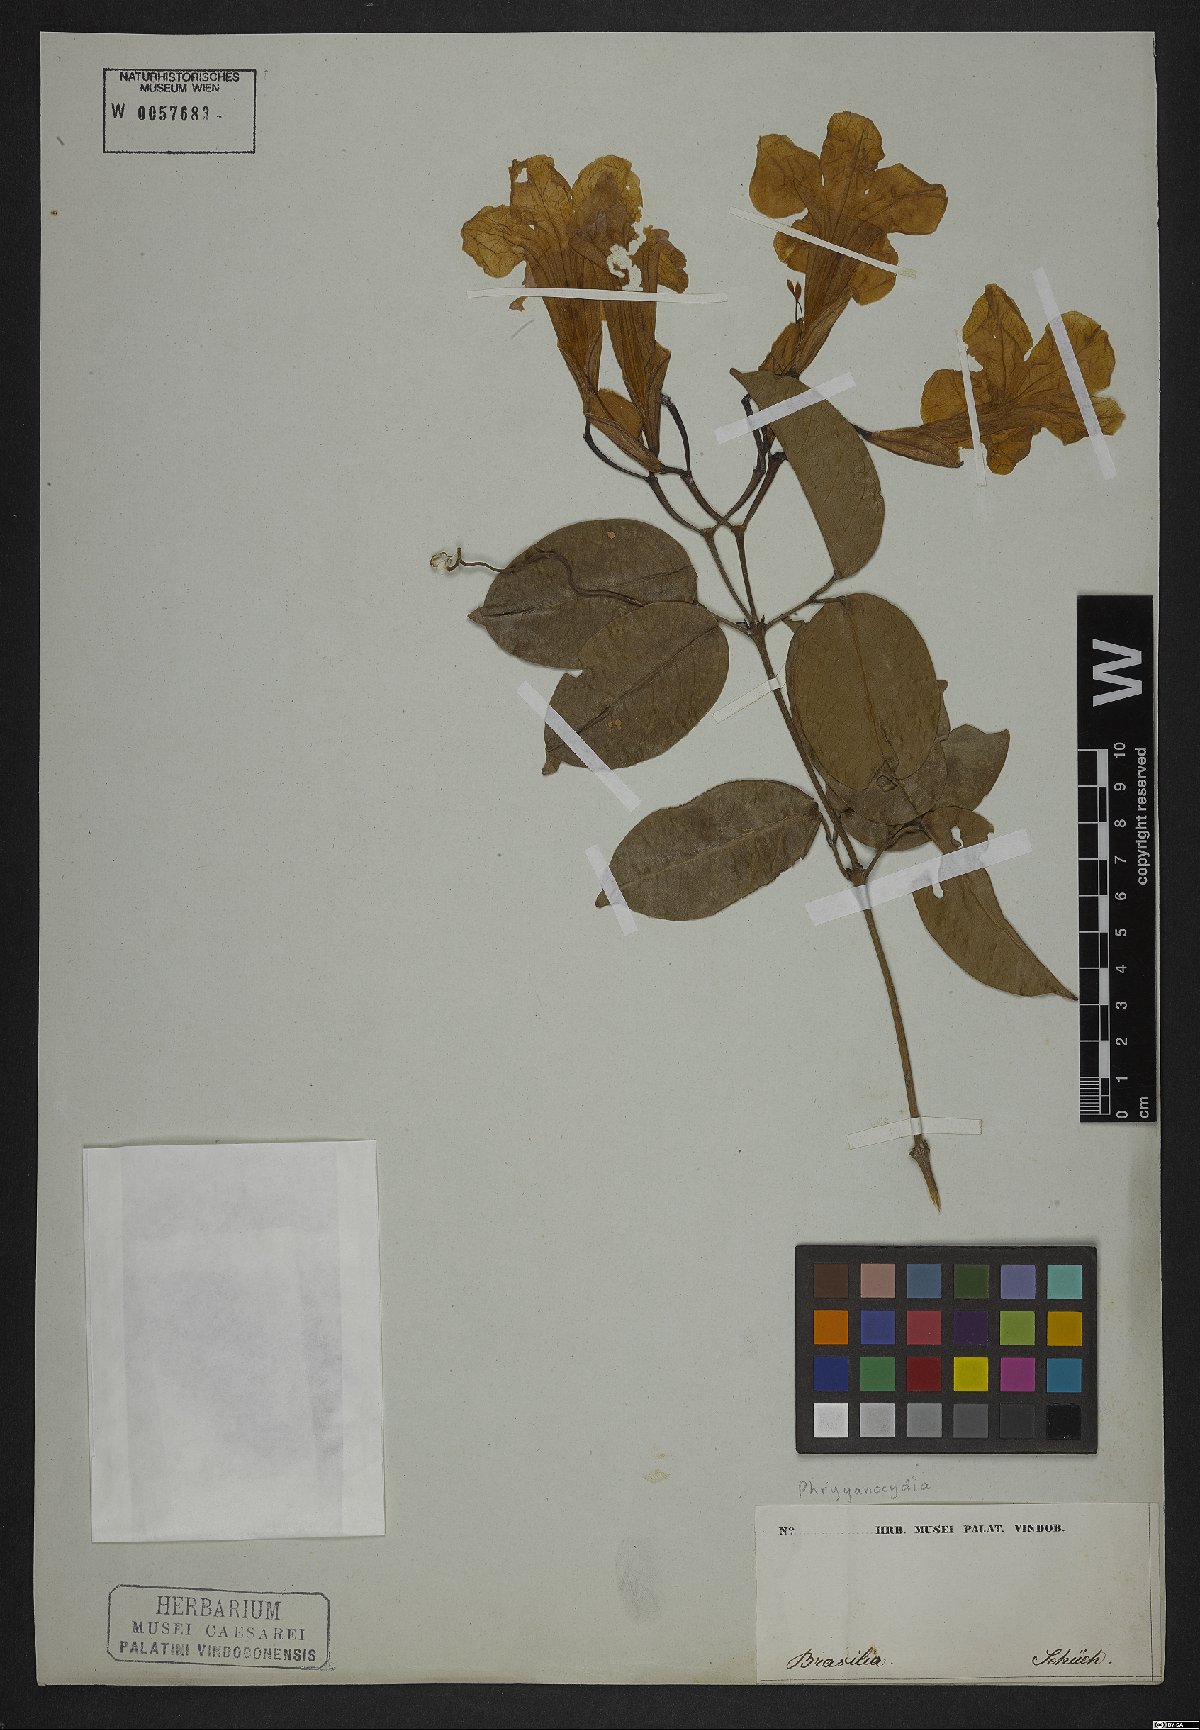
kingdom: Plantae
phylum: Tracheophyta
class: Magnoliopsida
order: Lamiales
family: Bignoniaceae
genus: Phryganocydia
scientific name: Phryganocydia
